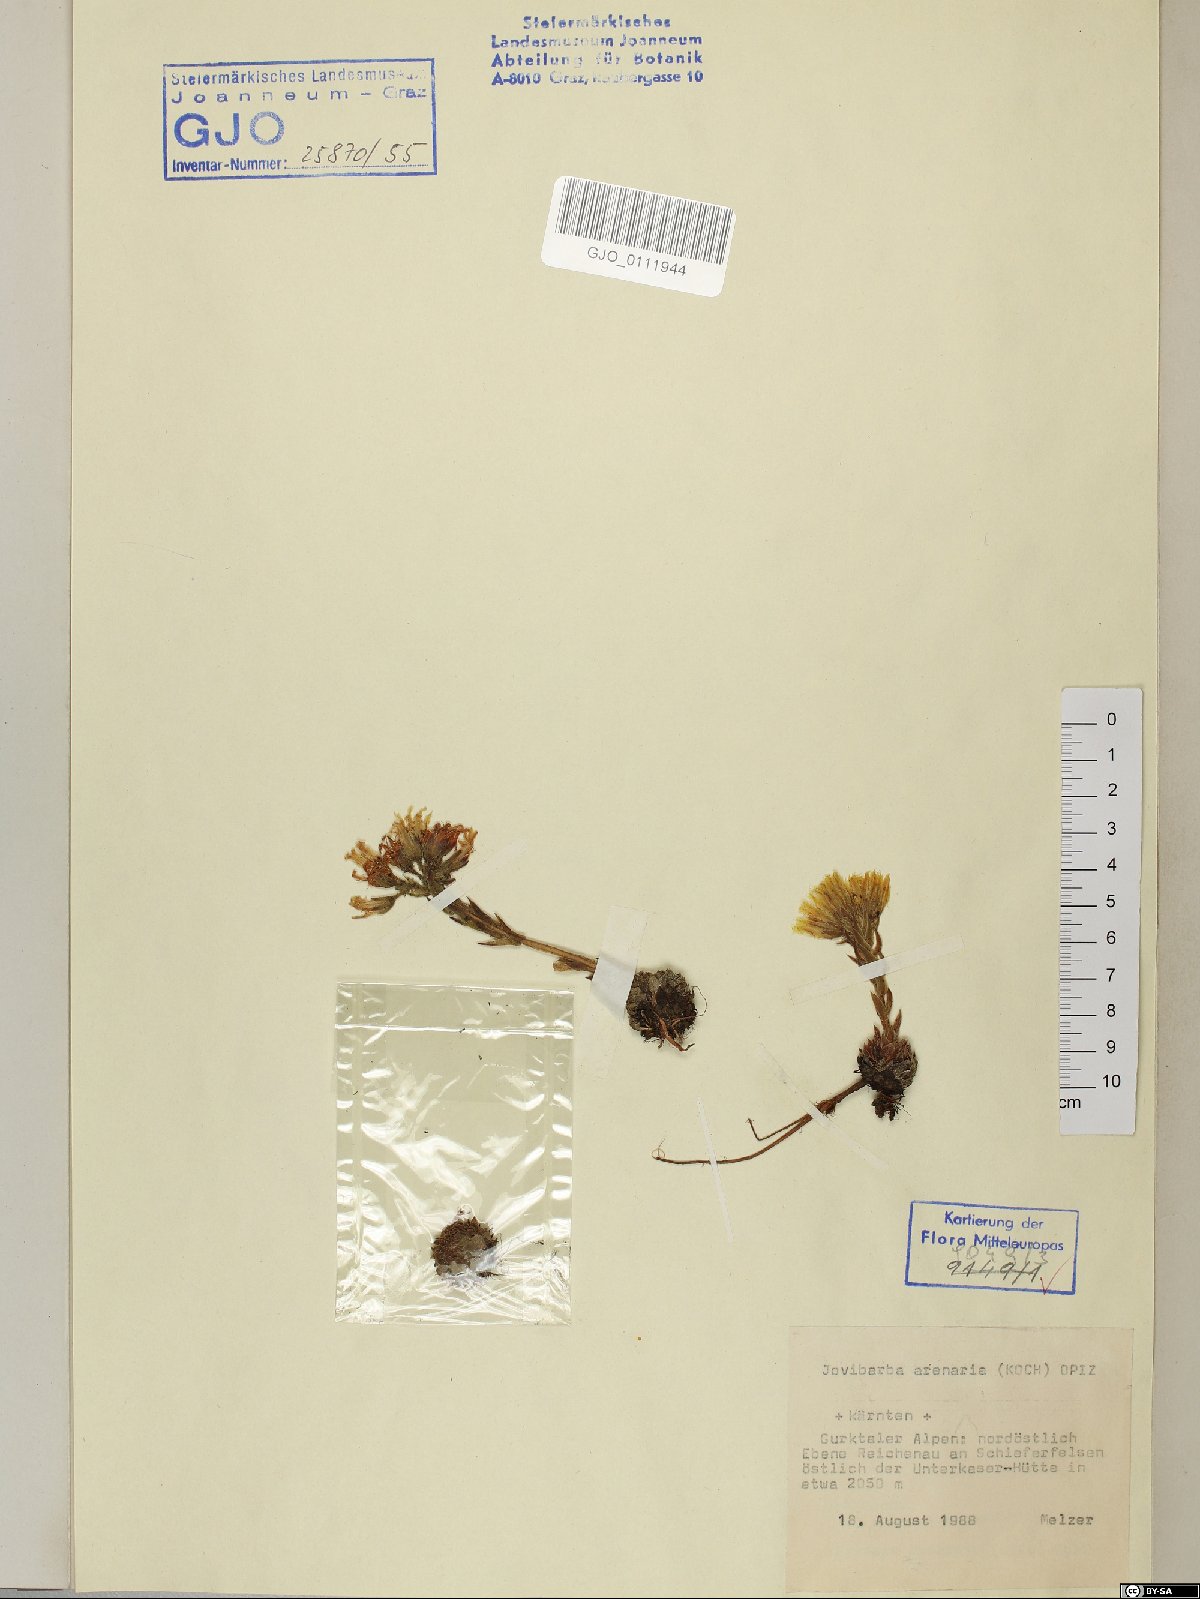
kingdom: Plantae
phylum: Tracheophyta
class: Magnoliopsida
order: Saxifragales
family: Crassulaceae
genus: Sempervivum
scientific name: Sempervivum globiferum
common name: Rolling hen-and-chicks
